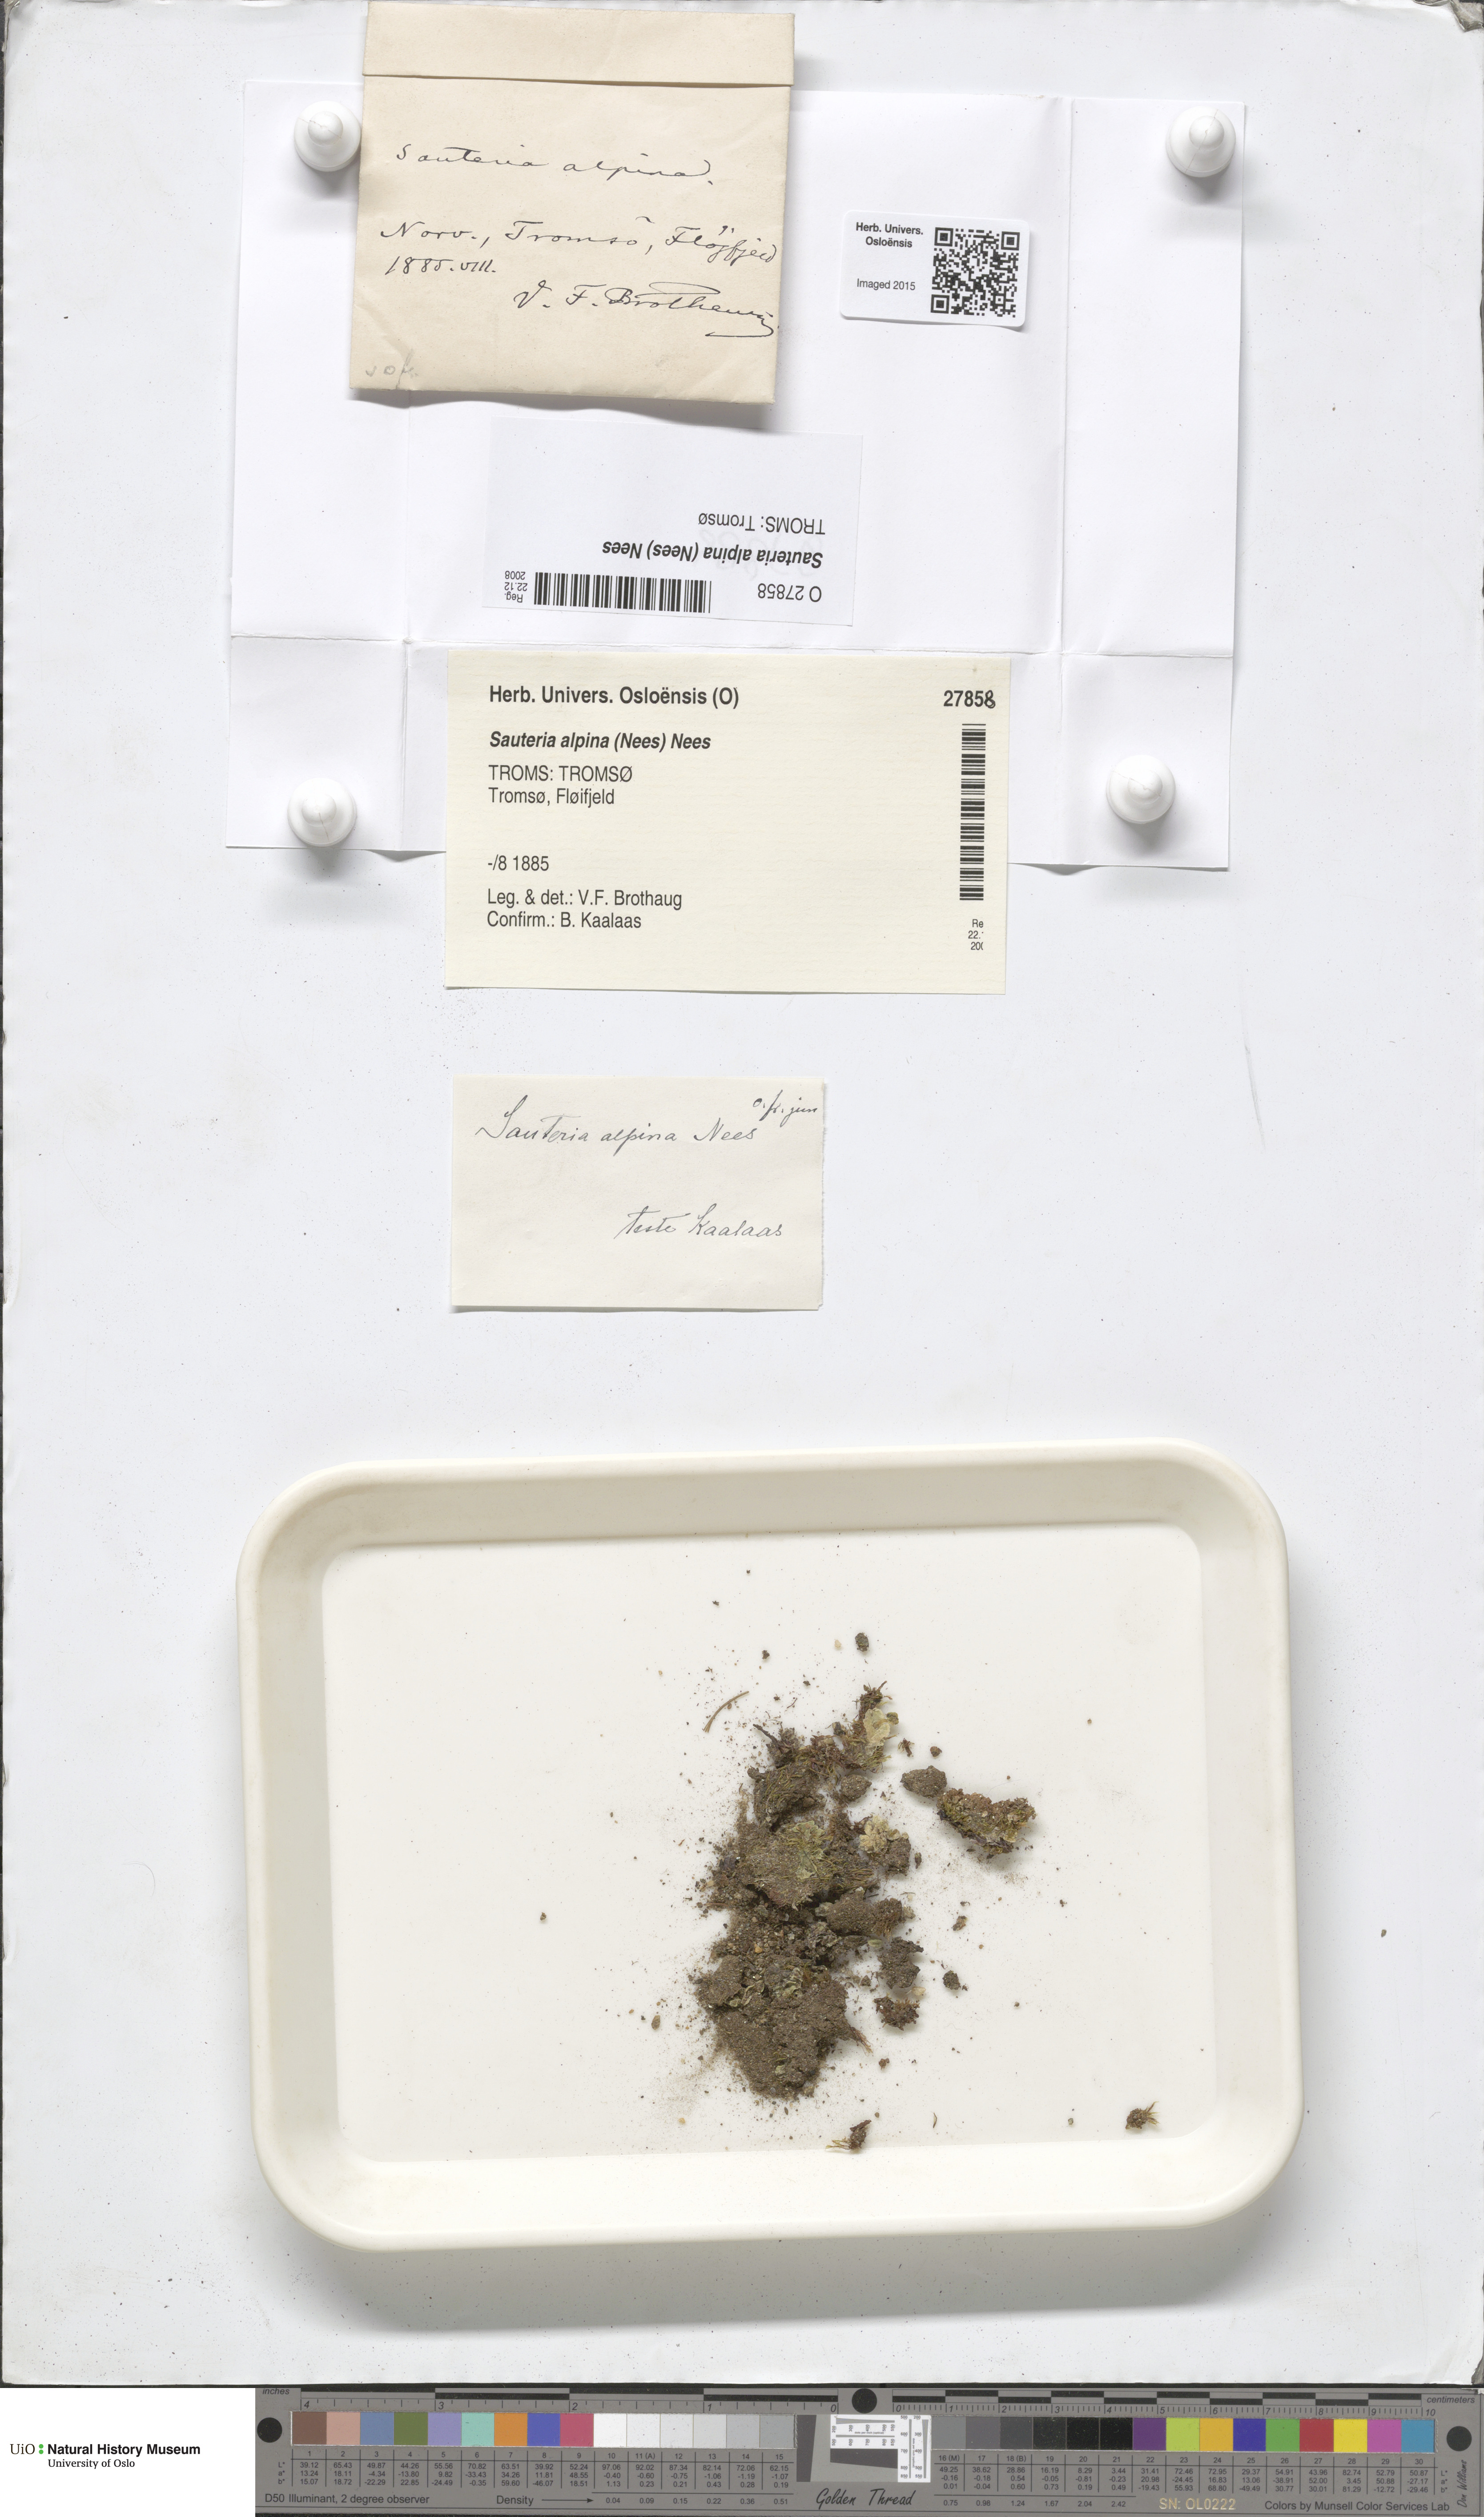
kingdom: Plantae
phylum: Marchantiophyta
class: Marchantiopsida
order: Marchantiales
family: Cleveaceae
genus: Sauteria
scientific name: Sauteria alpina
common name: Snow lungwort
